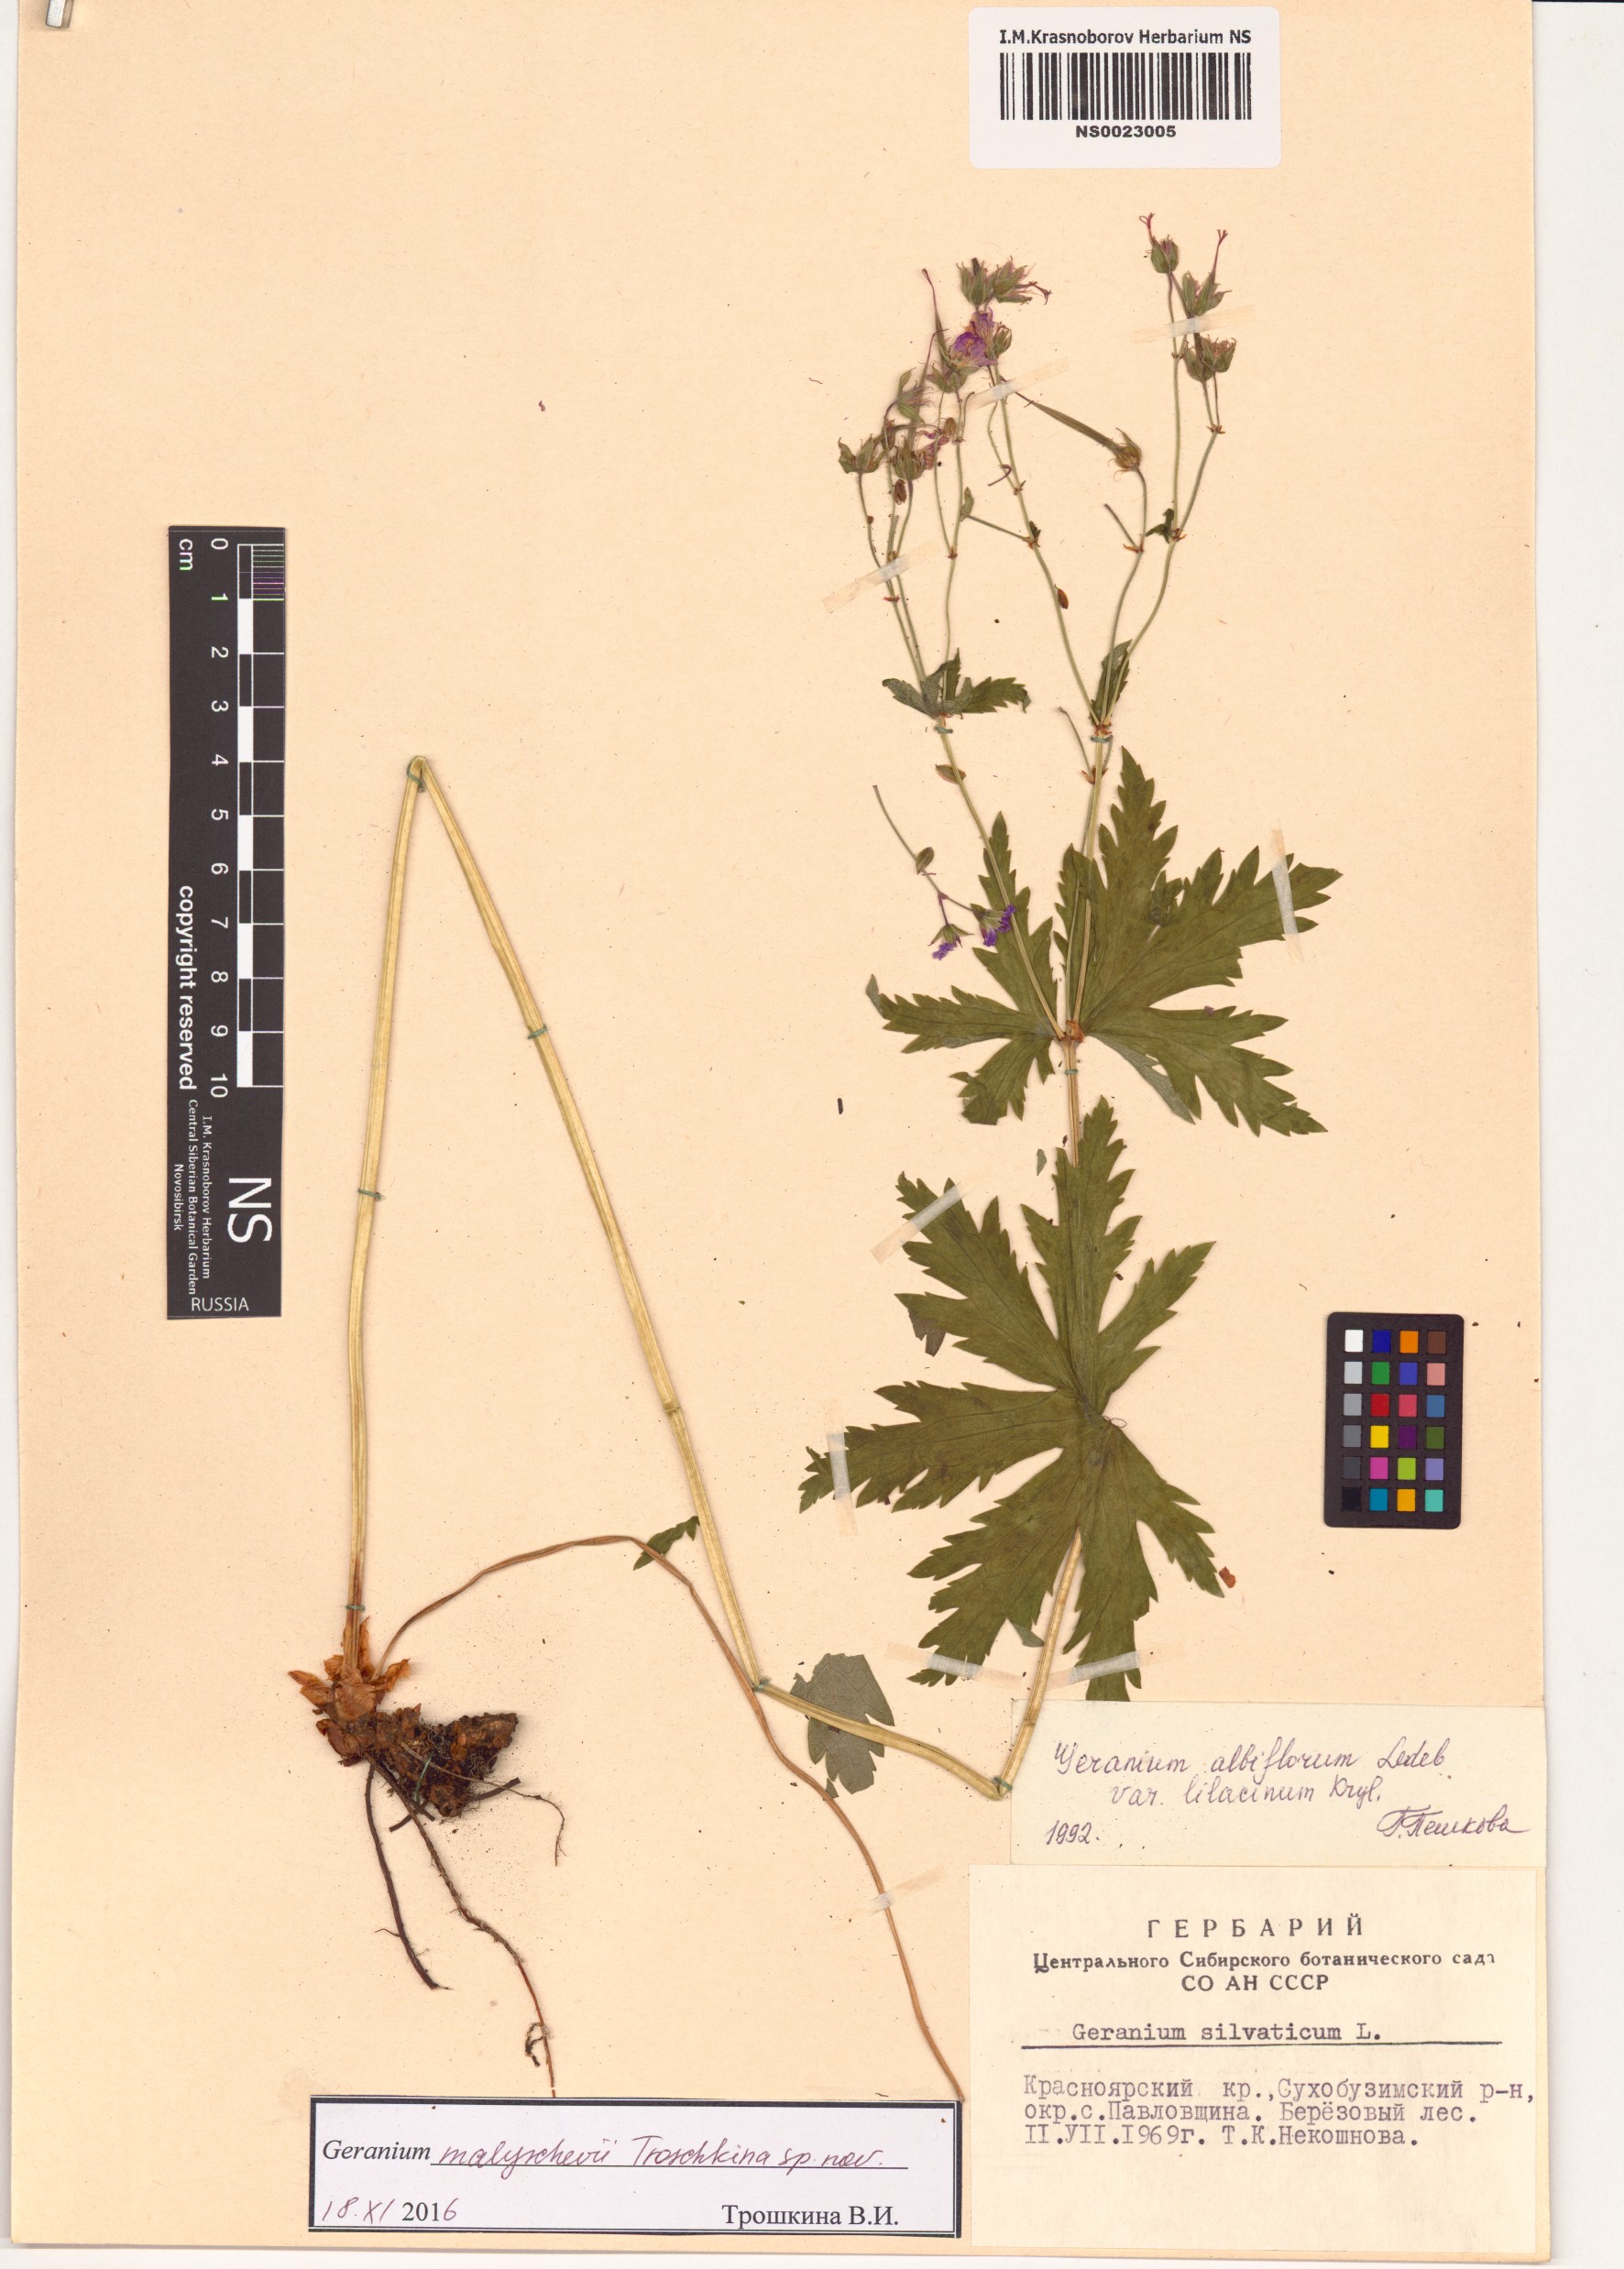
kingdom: Plantae
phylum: Tracheophyta
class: Magnoliopsida
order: Geraniales
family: Geraniaceae
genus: Geranium
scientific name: Geranium malyschevii
